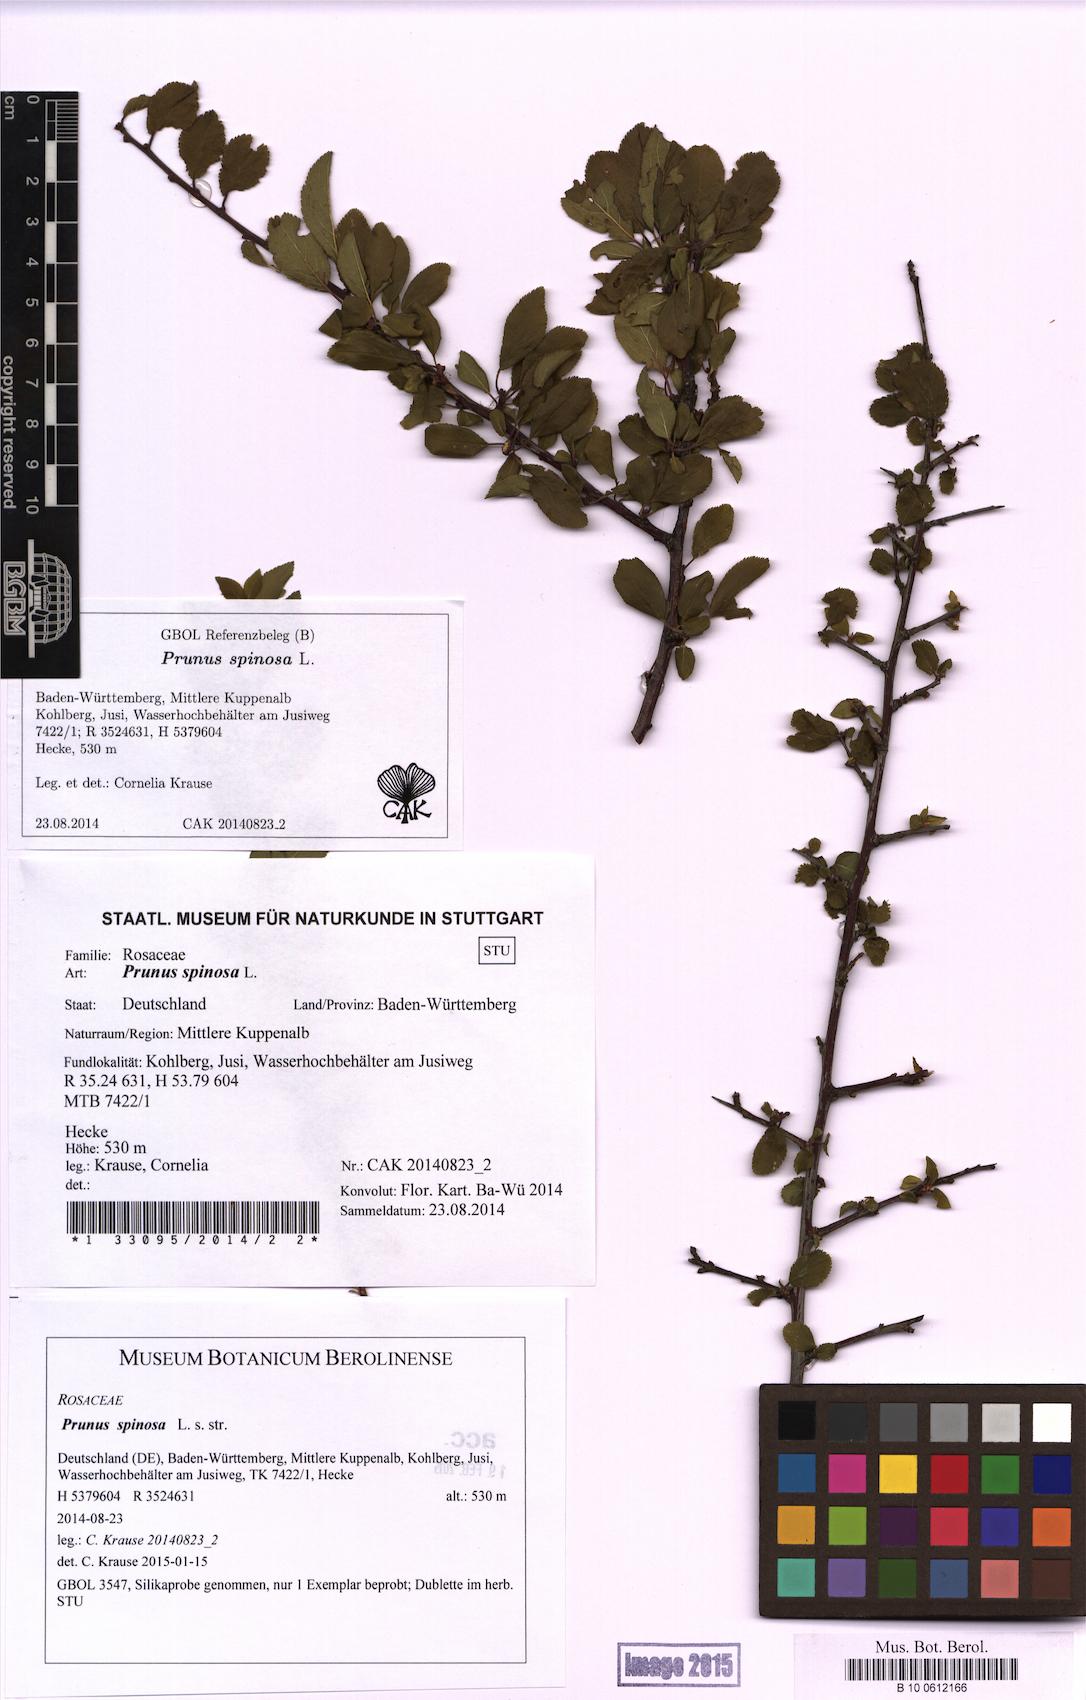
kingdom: Plantae
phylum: Tracheophyta
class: Magnoliopsida
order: Rosales
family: Rosaceae
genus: Prunus
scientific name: Prunus spinosa
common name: Blackthorn
